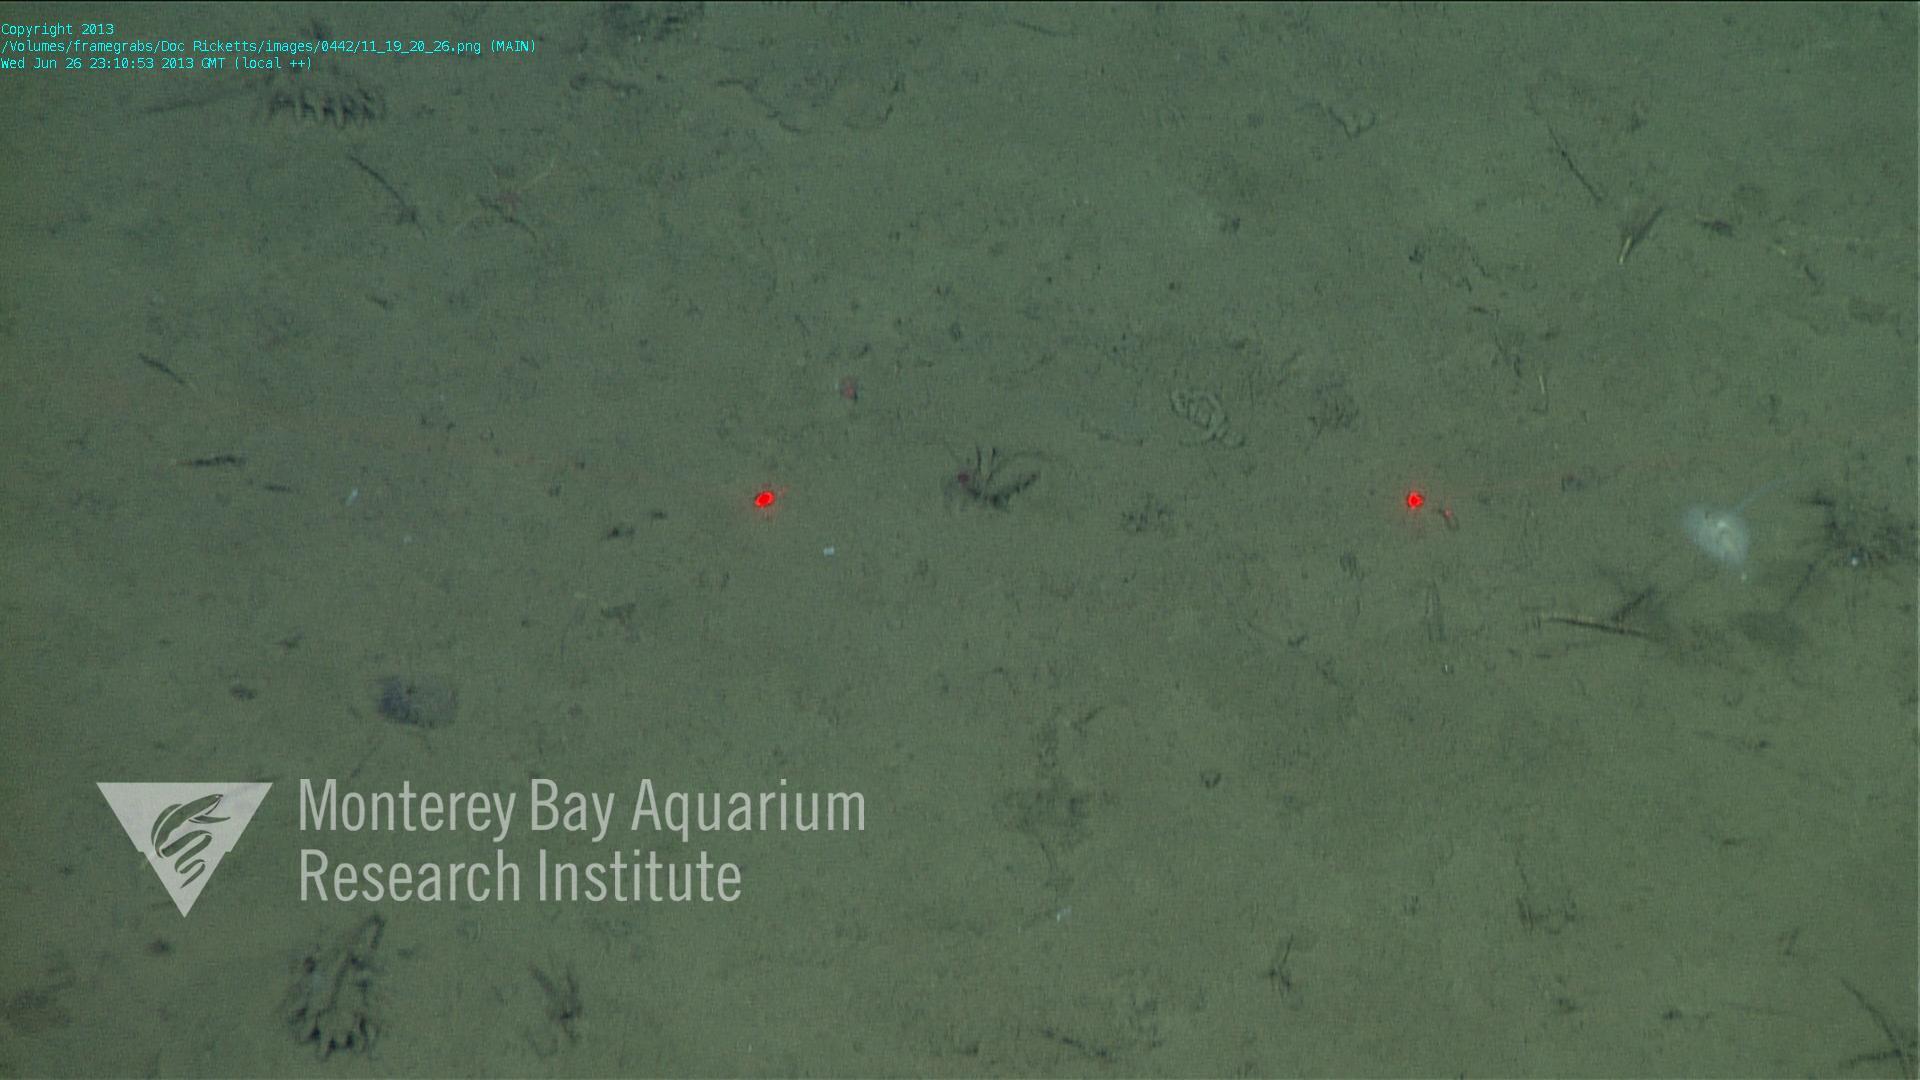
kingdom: Animalia
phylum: Porifera
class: Demospongiae
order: Poecilosclerida
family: Cladorhizidae
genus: Cladorhiza
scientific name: Cladorhiza
